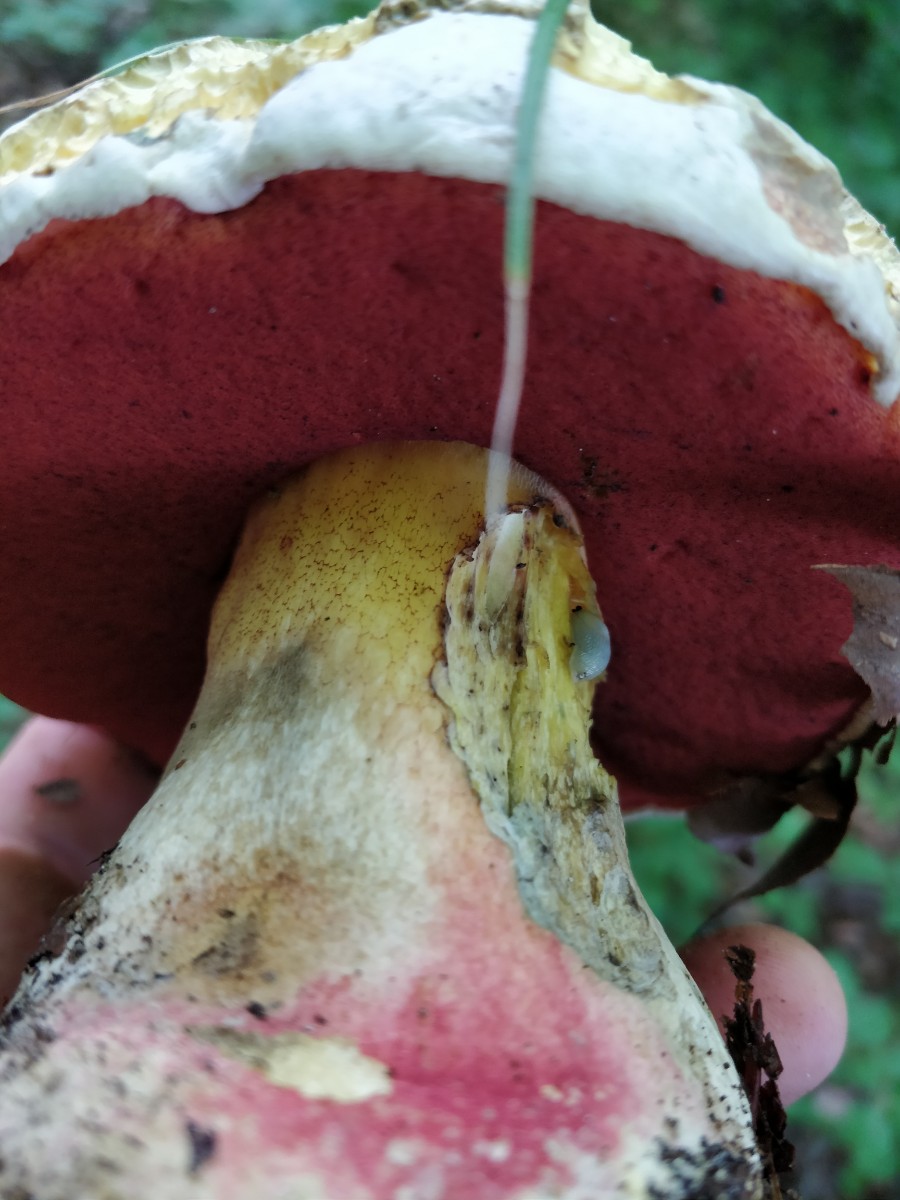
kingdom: Fungi
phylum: Basidiomycota
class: Agaricomycetes
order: Boletales
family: Boletaceae
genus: Rubroboletus
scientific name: Rubroboletus satanas
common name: Satans rørhat
